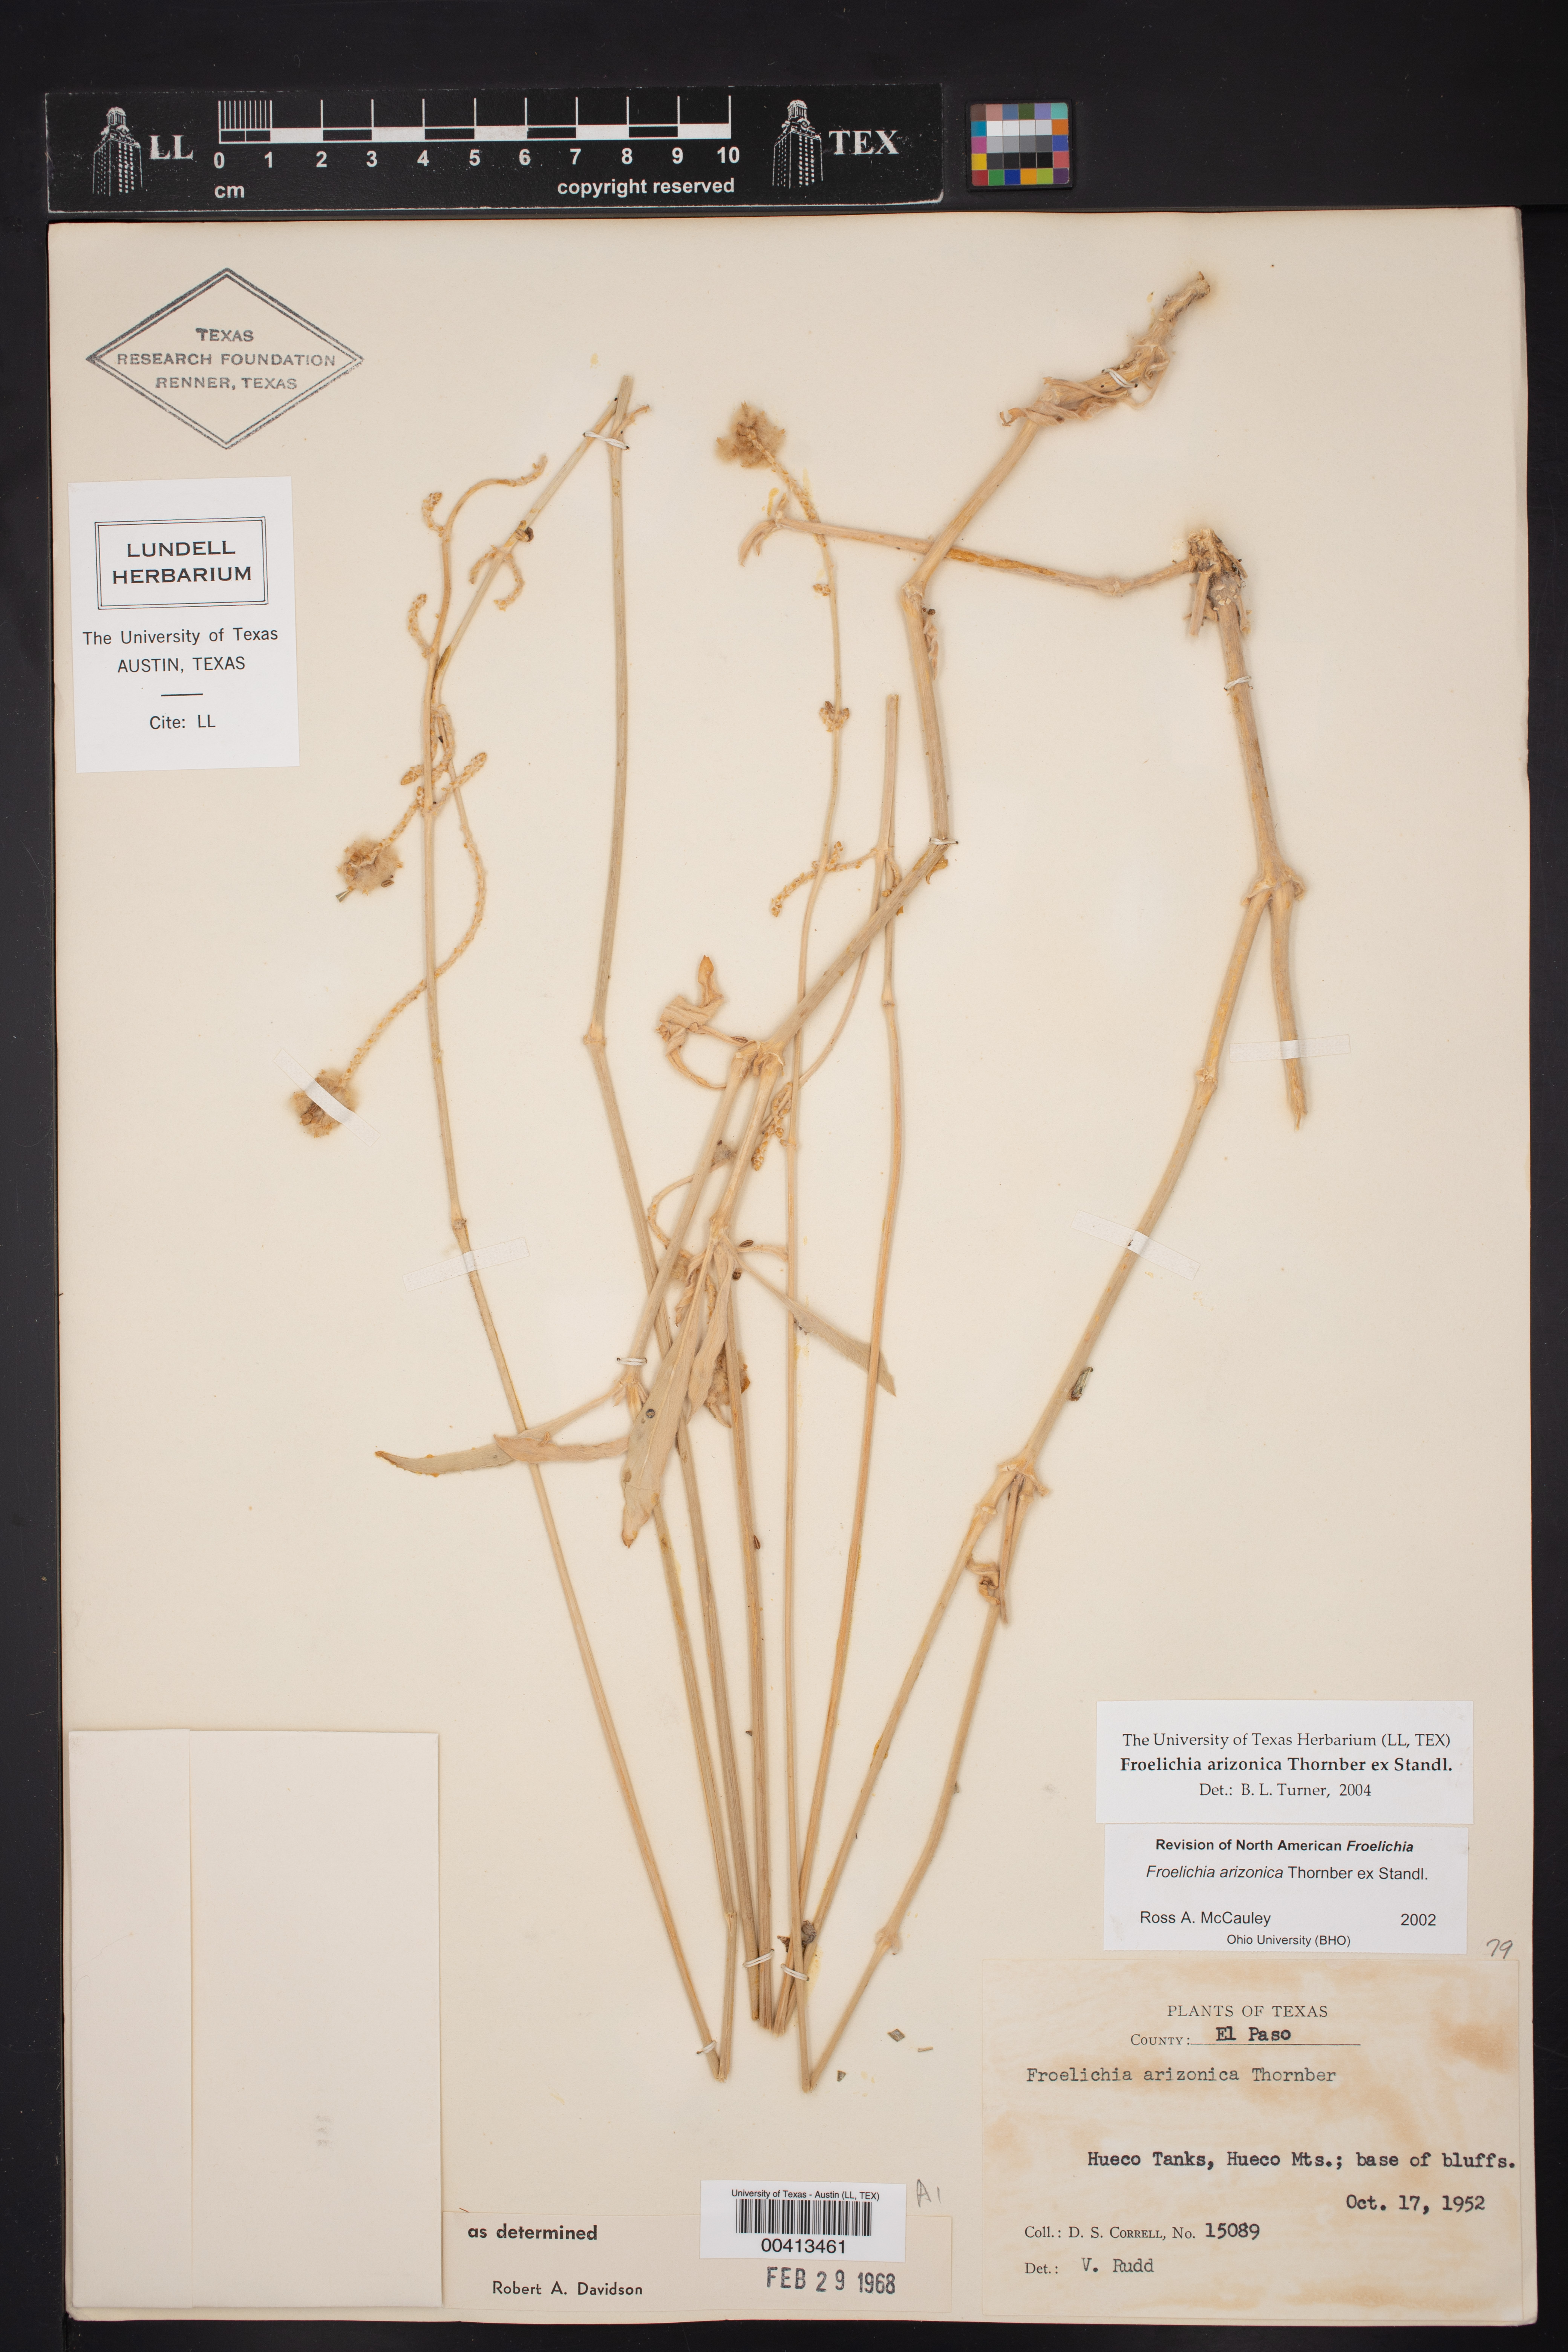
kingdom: Plantae
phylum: Tracheophyta
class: Magnoliopsida
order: Caryophyllales
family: Amaranthaceae
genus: Froelichia
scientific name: Froelichia arizonica
